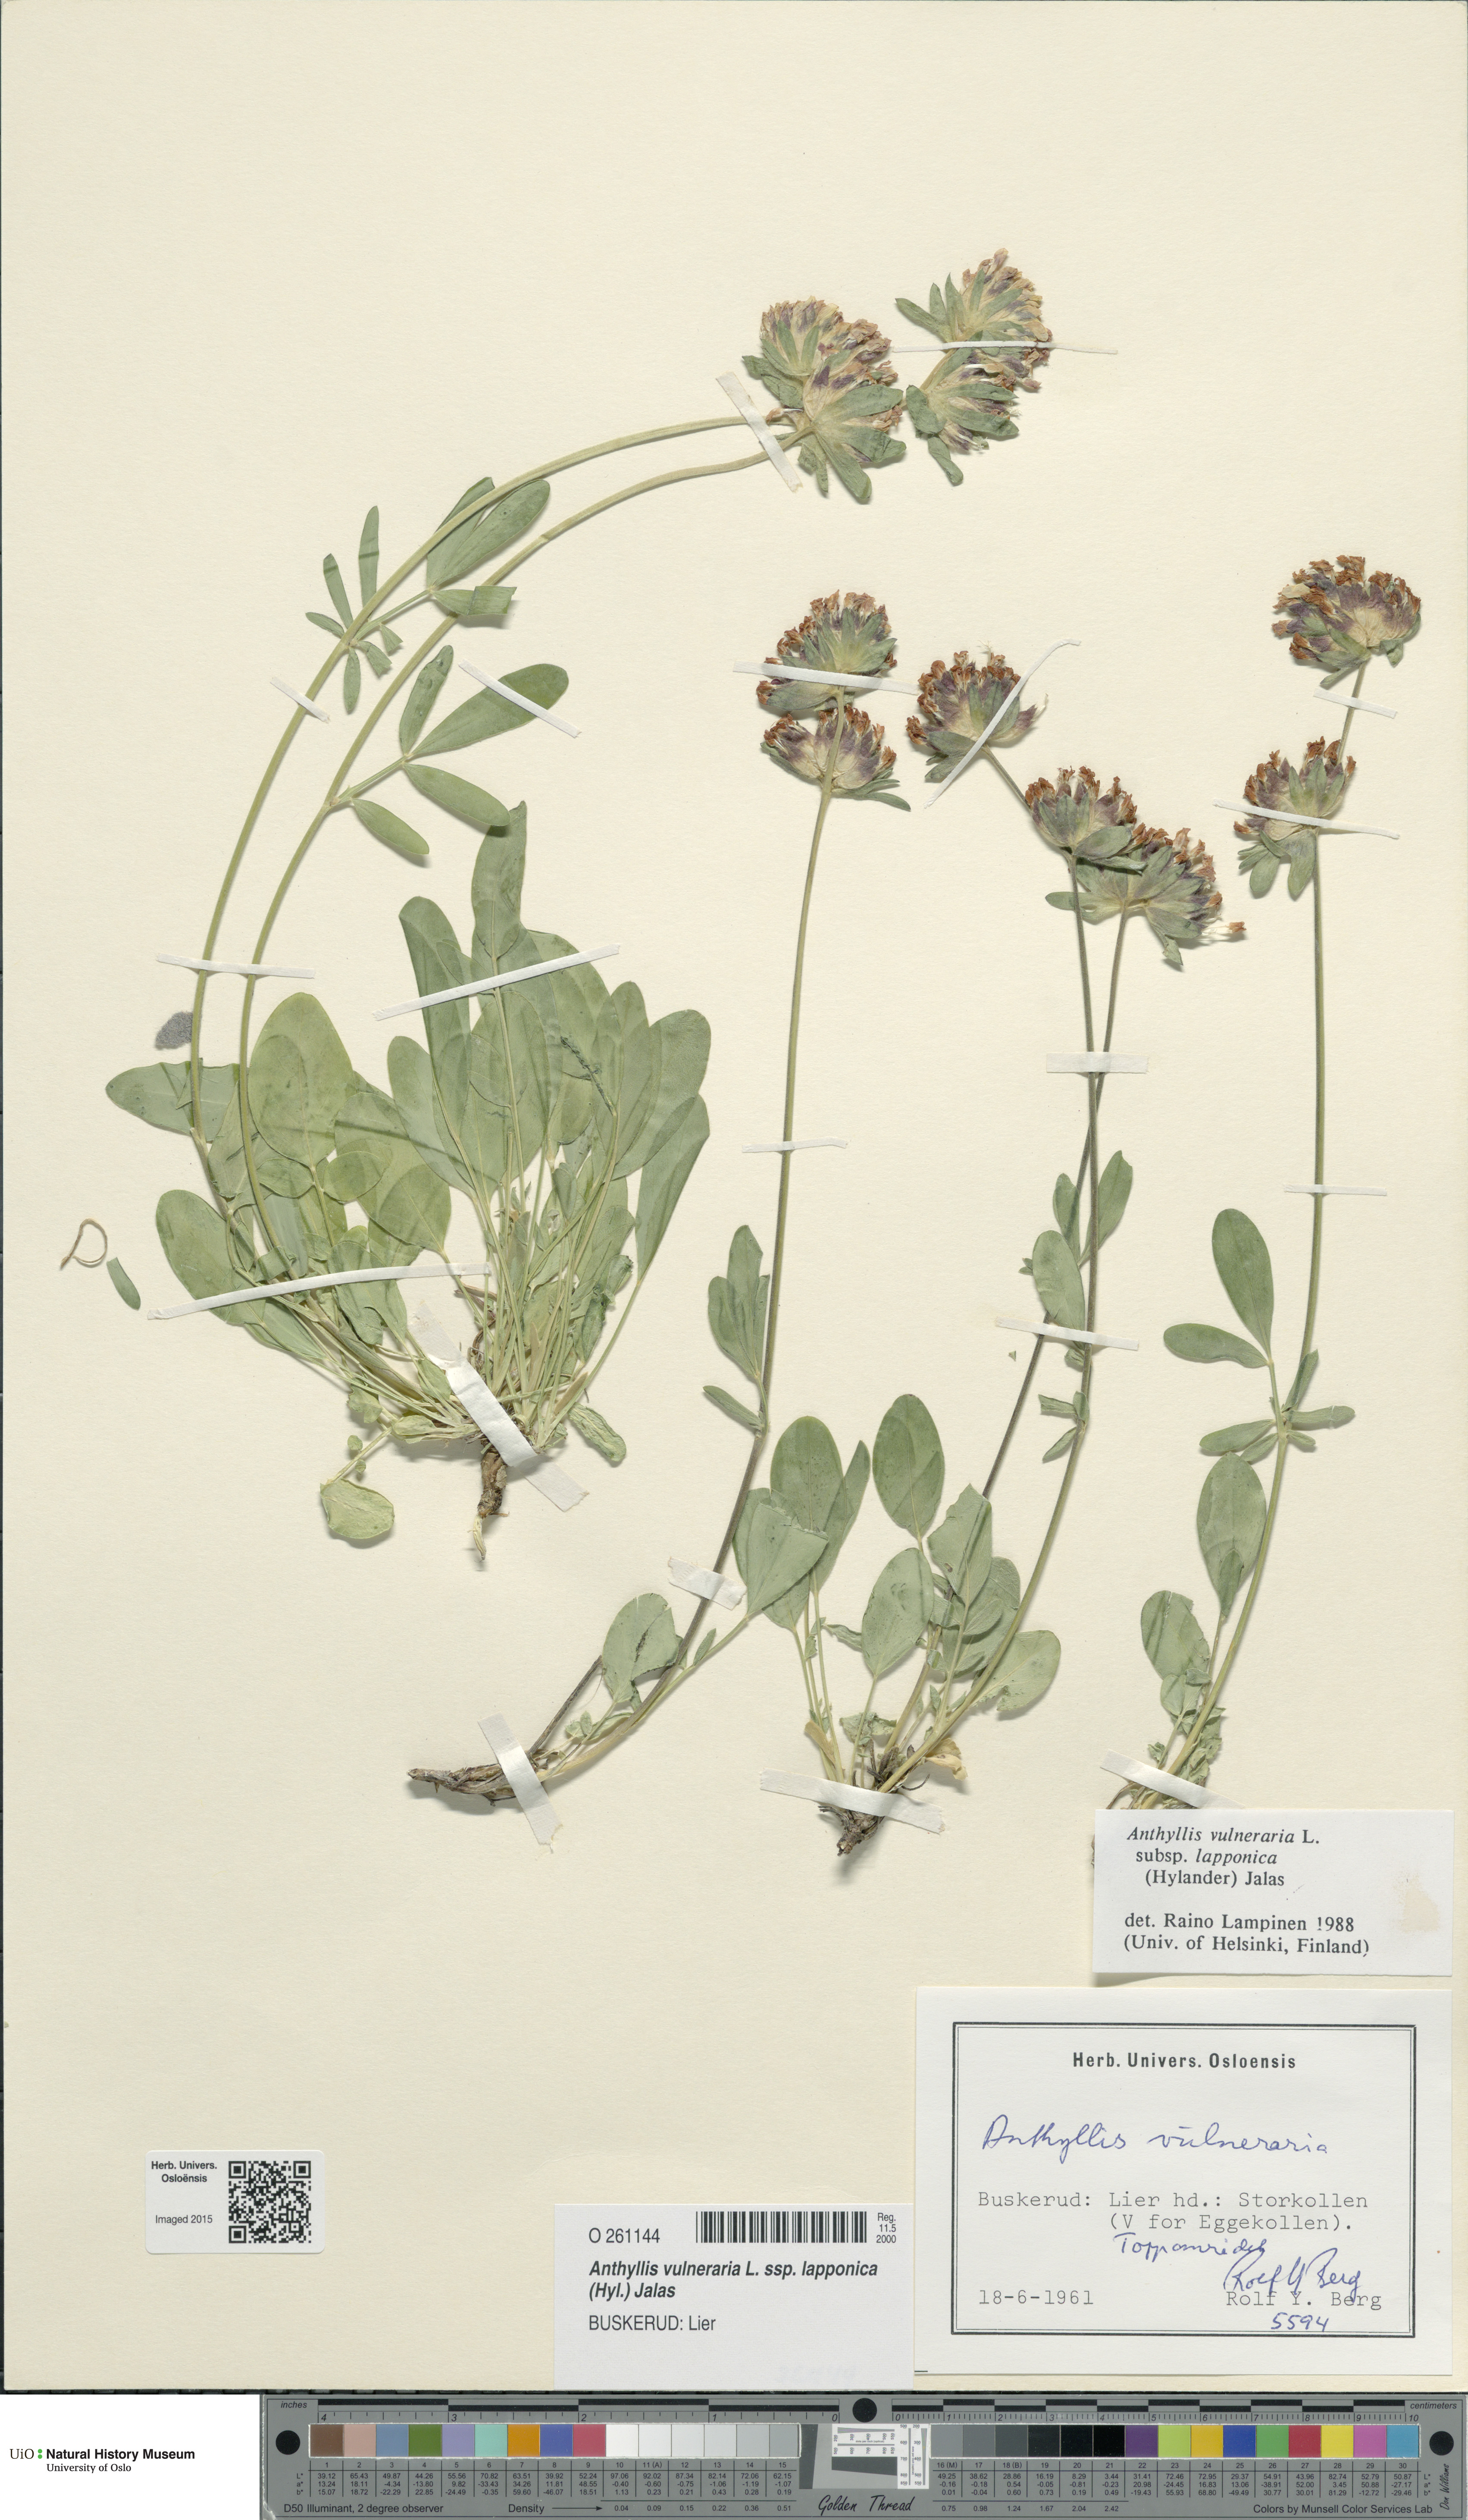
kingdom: Plantae
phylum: Tracheophyta
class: Magnoliopsida
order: Fabales
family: Fabaceae
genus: Anthyllis
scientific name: Anthyllis vulneraria
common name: Kidney vetch
